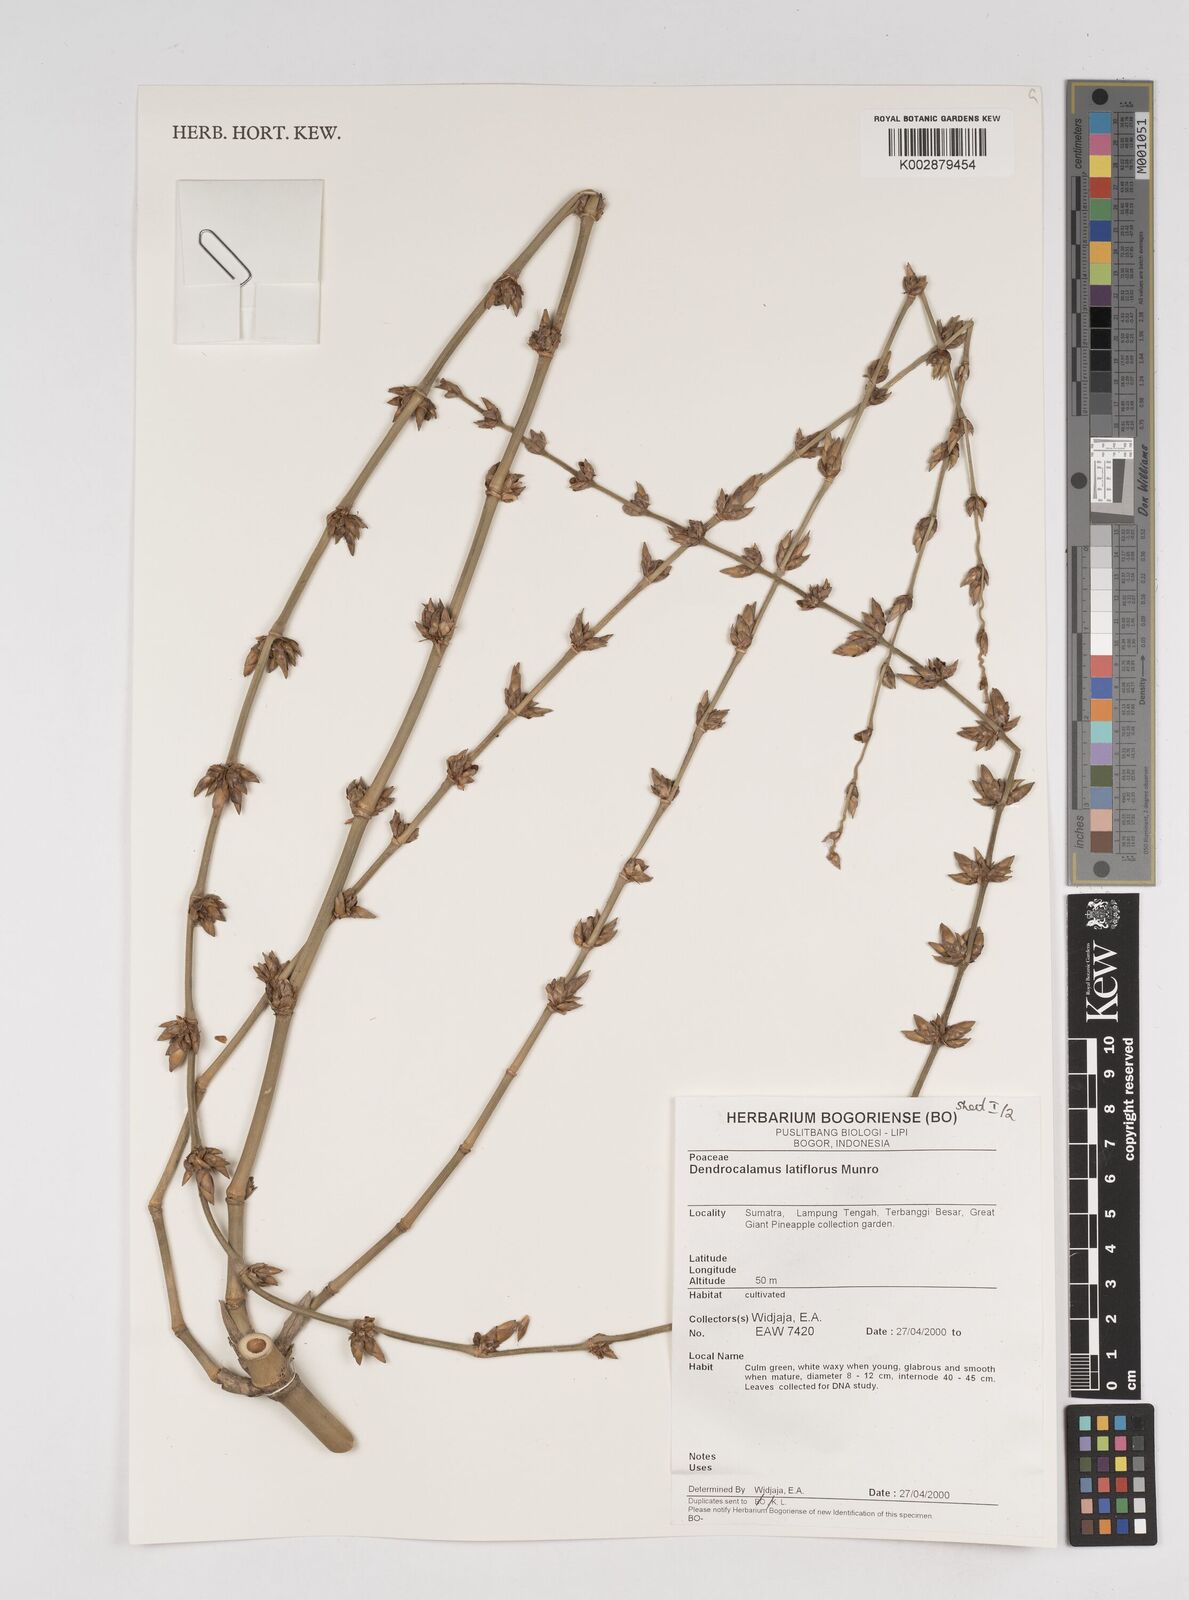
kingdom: Plantae
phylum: Tracheophyta
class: Liliopsida
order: Poales
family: Poaceae
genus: Dendrocalamus
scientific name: Dendrocalamus latiflorus
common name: Giant bamboo
